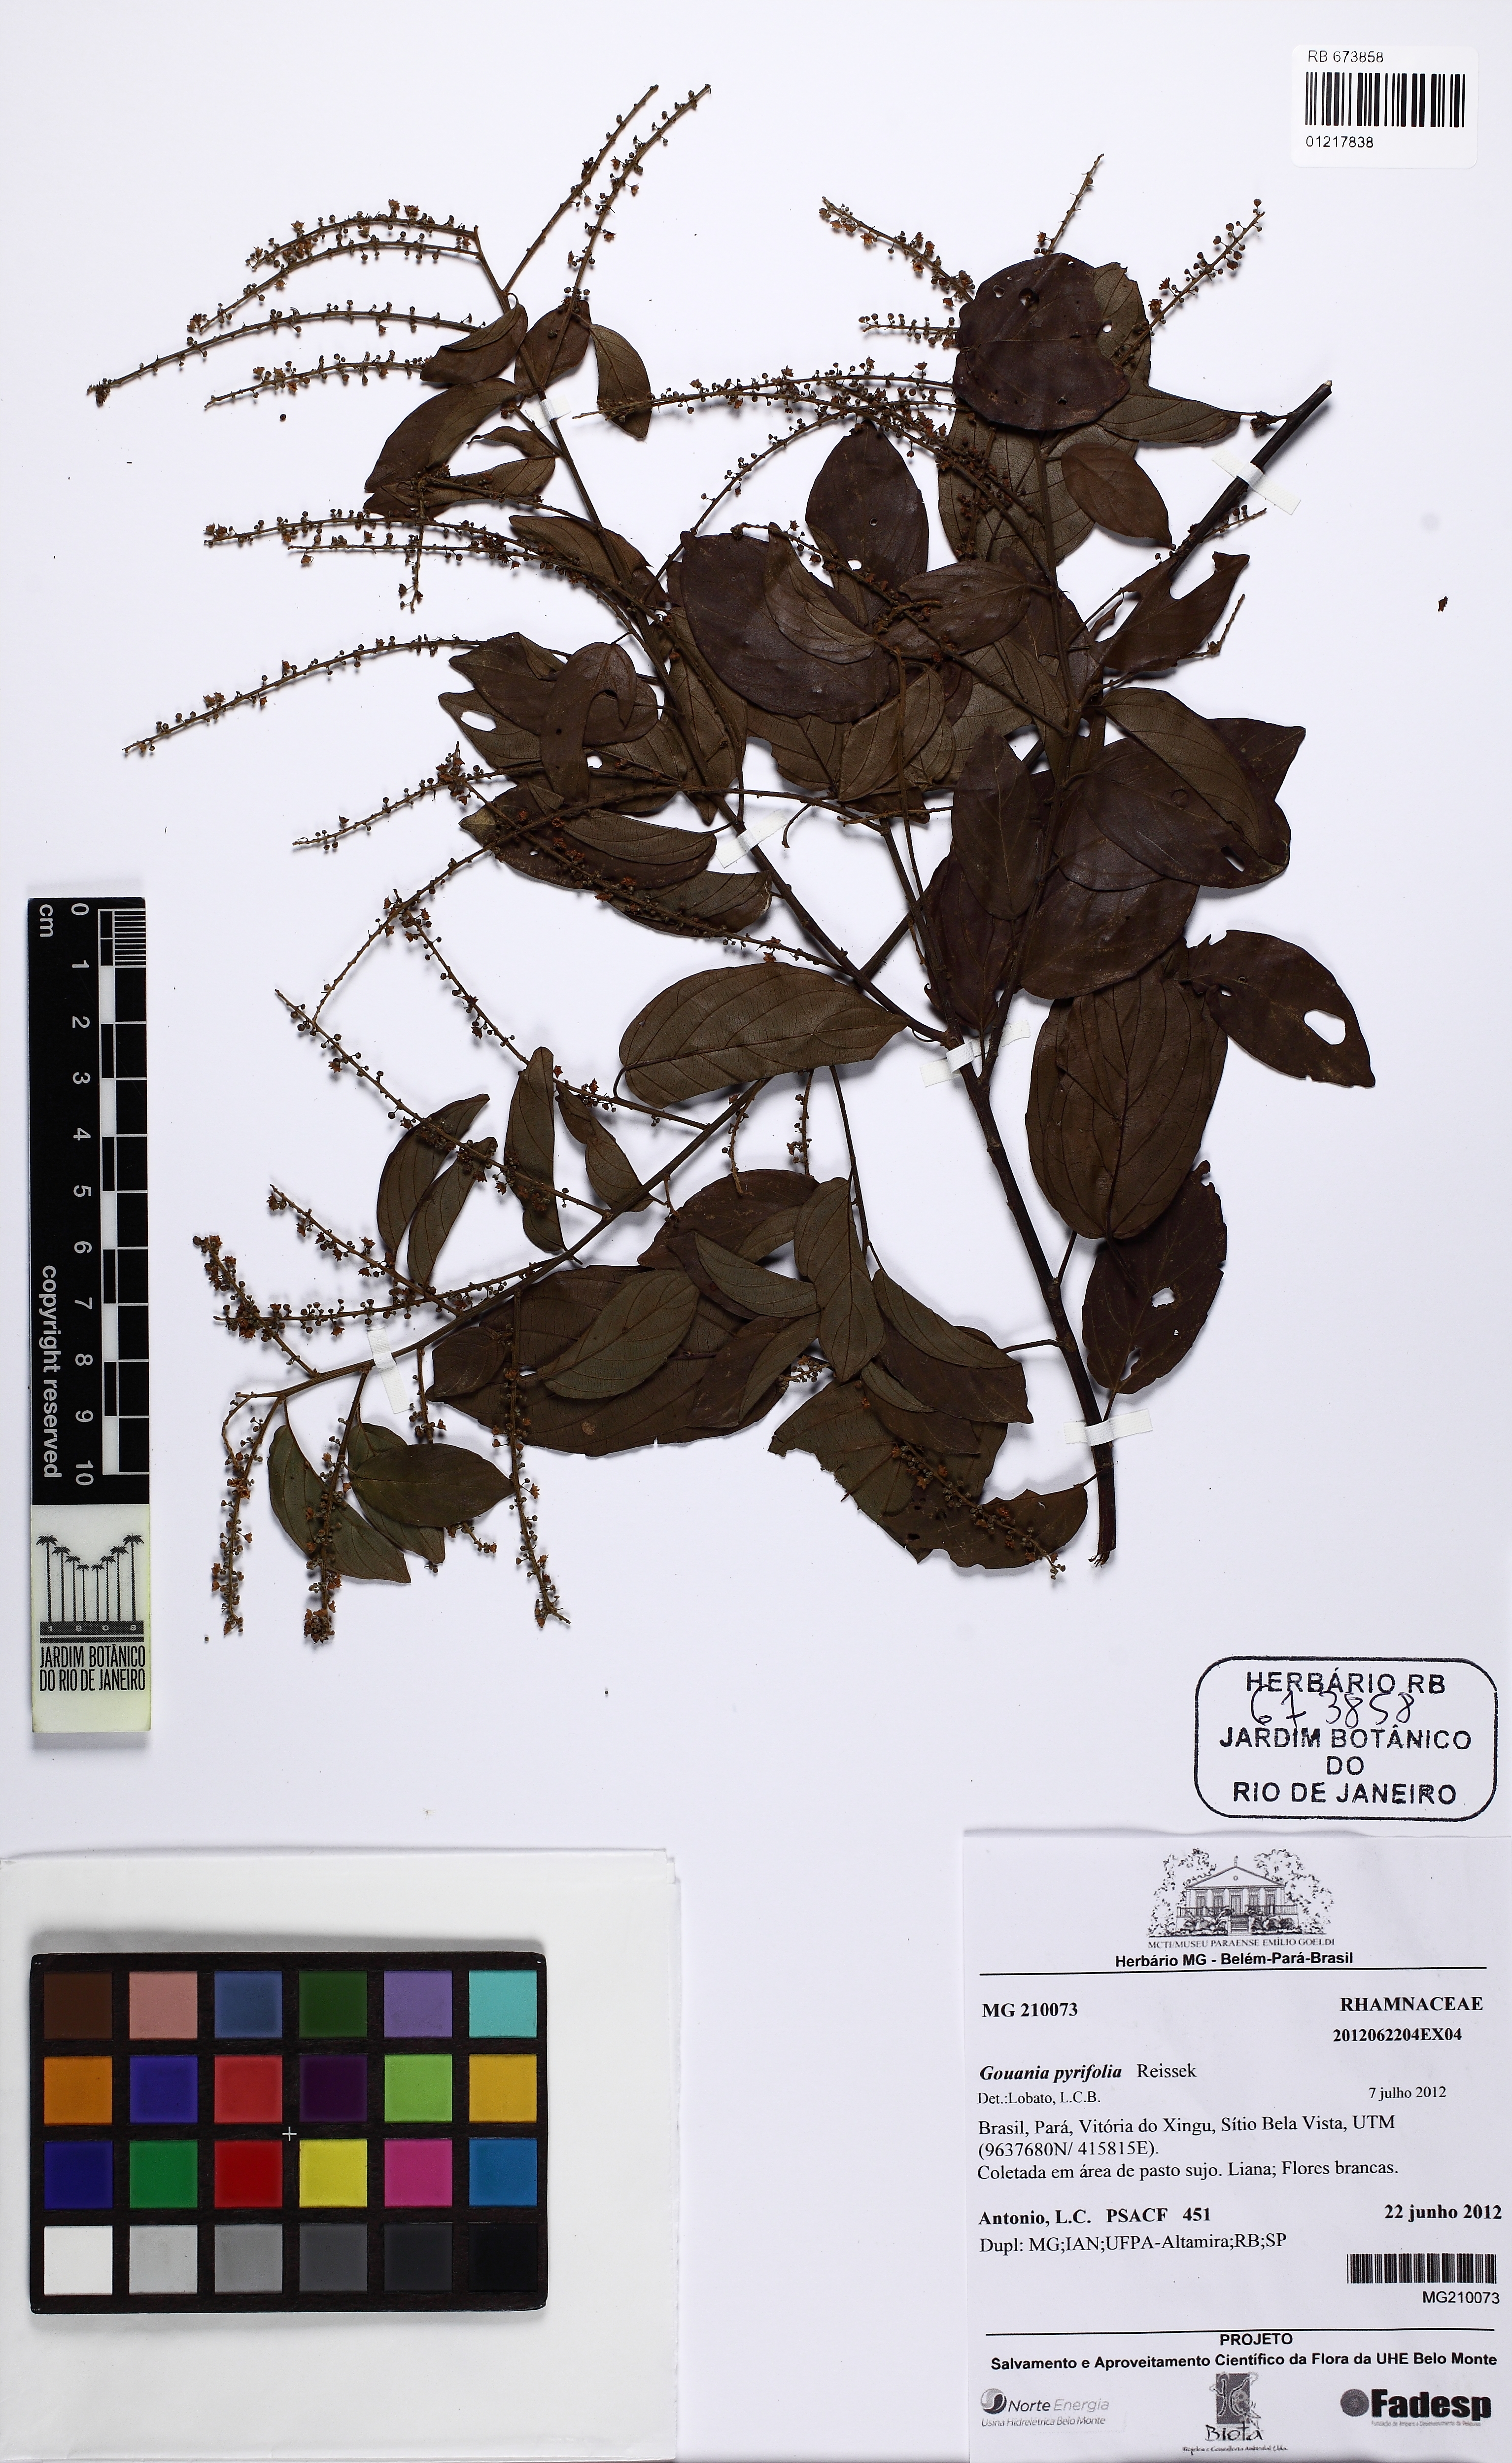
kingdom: Plantae
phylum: Tracheophyta
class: Magnoliopsida
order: Rosales
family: Rhamnaceae
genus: Gouania
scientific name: Gouania pyrifolia
